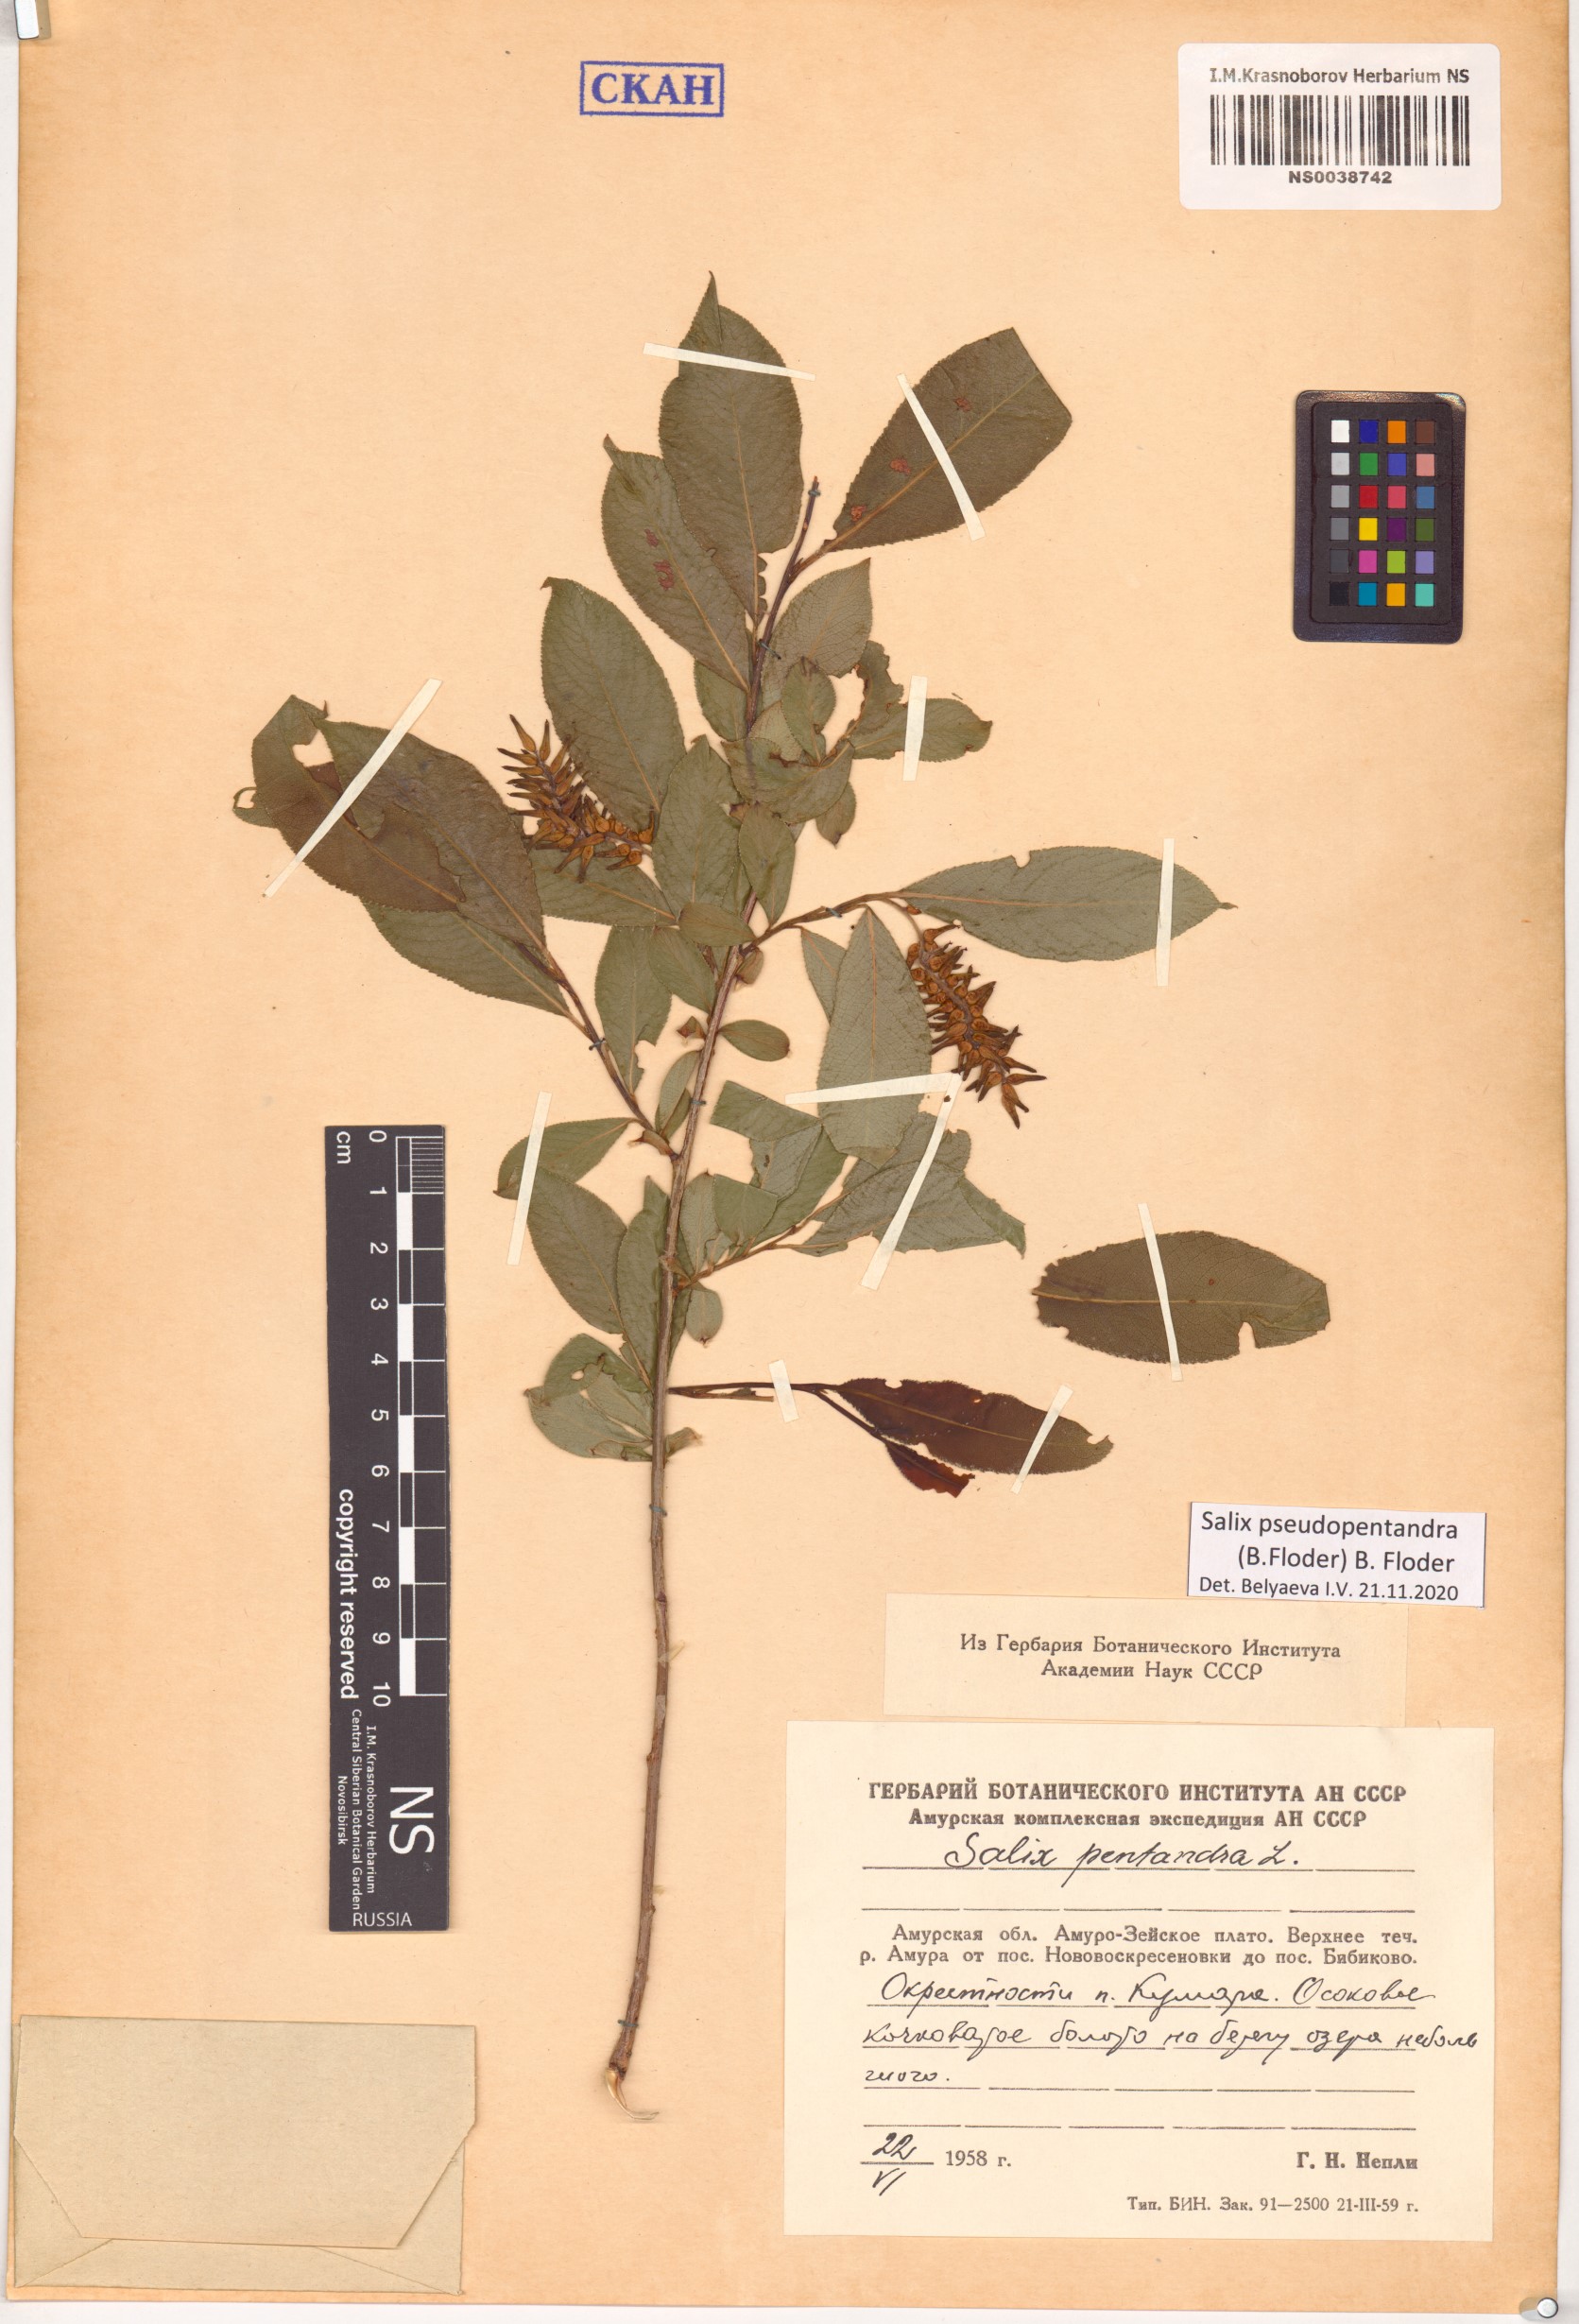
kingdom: Plantae
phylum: Tracheophyta
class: Magnoliopsida
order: Malpighiales
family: Salicaceae
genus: Salix
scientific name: Salix pseudopentandra
